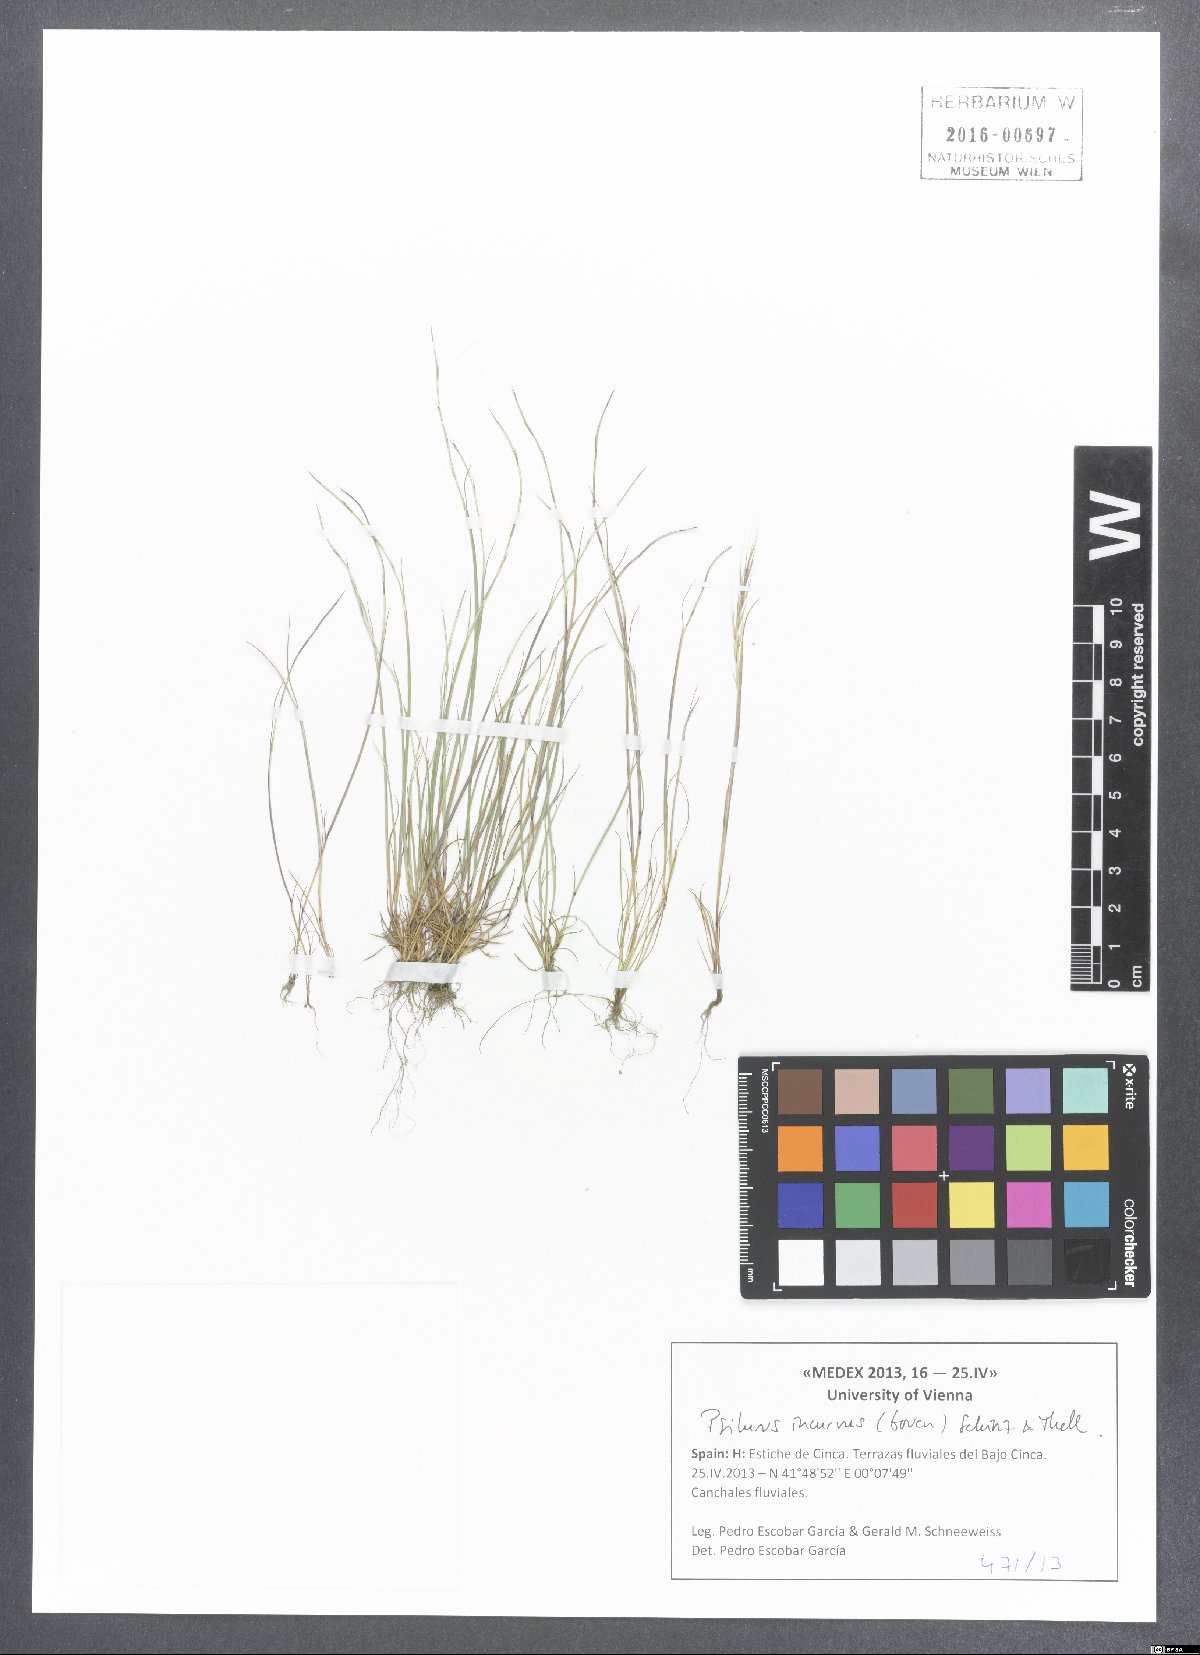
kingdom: Plantae
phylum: Tracheophyta
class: Liliopsida
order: Poales
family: Poaceae
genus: Festuca
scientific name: Festuca incurva
